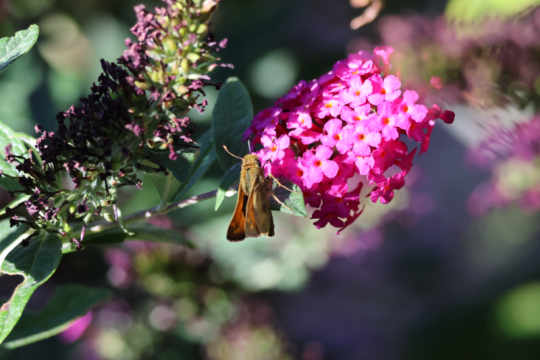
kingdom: Animalia
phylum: Arthropoda
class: Insecta
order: Lepidoptera
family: Hesperiidae
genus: Atalopedes
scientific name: Atalopedes campestris
